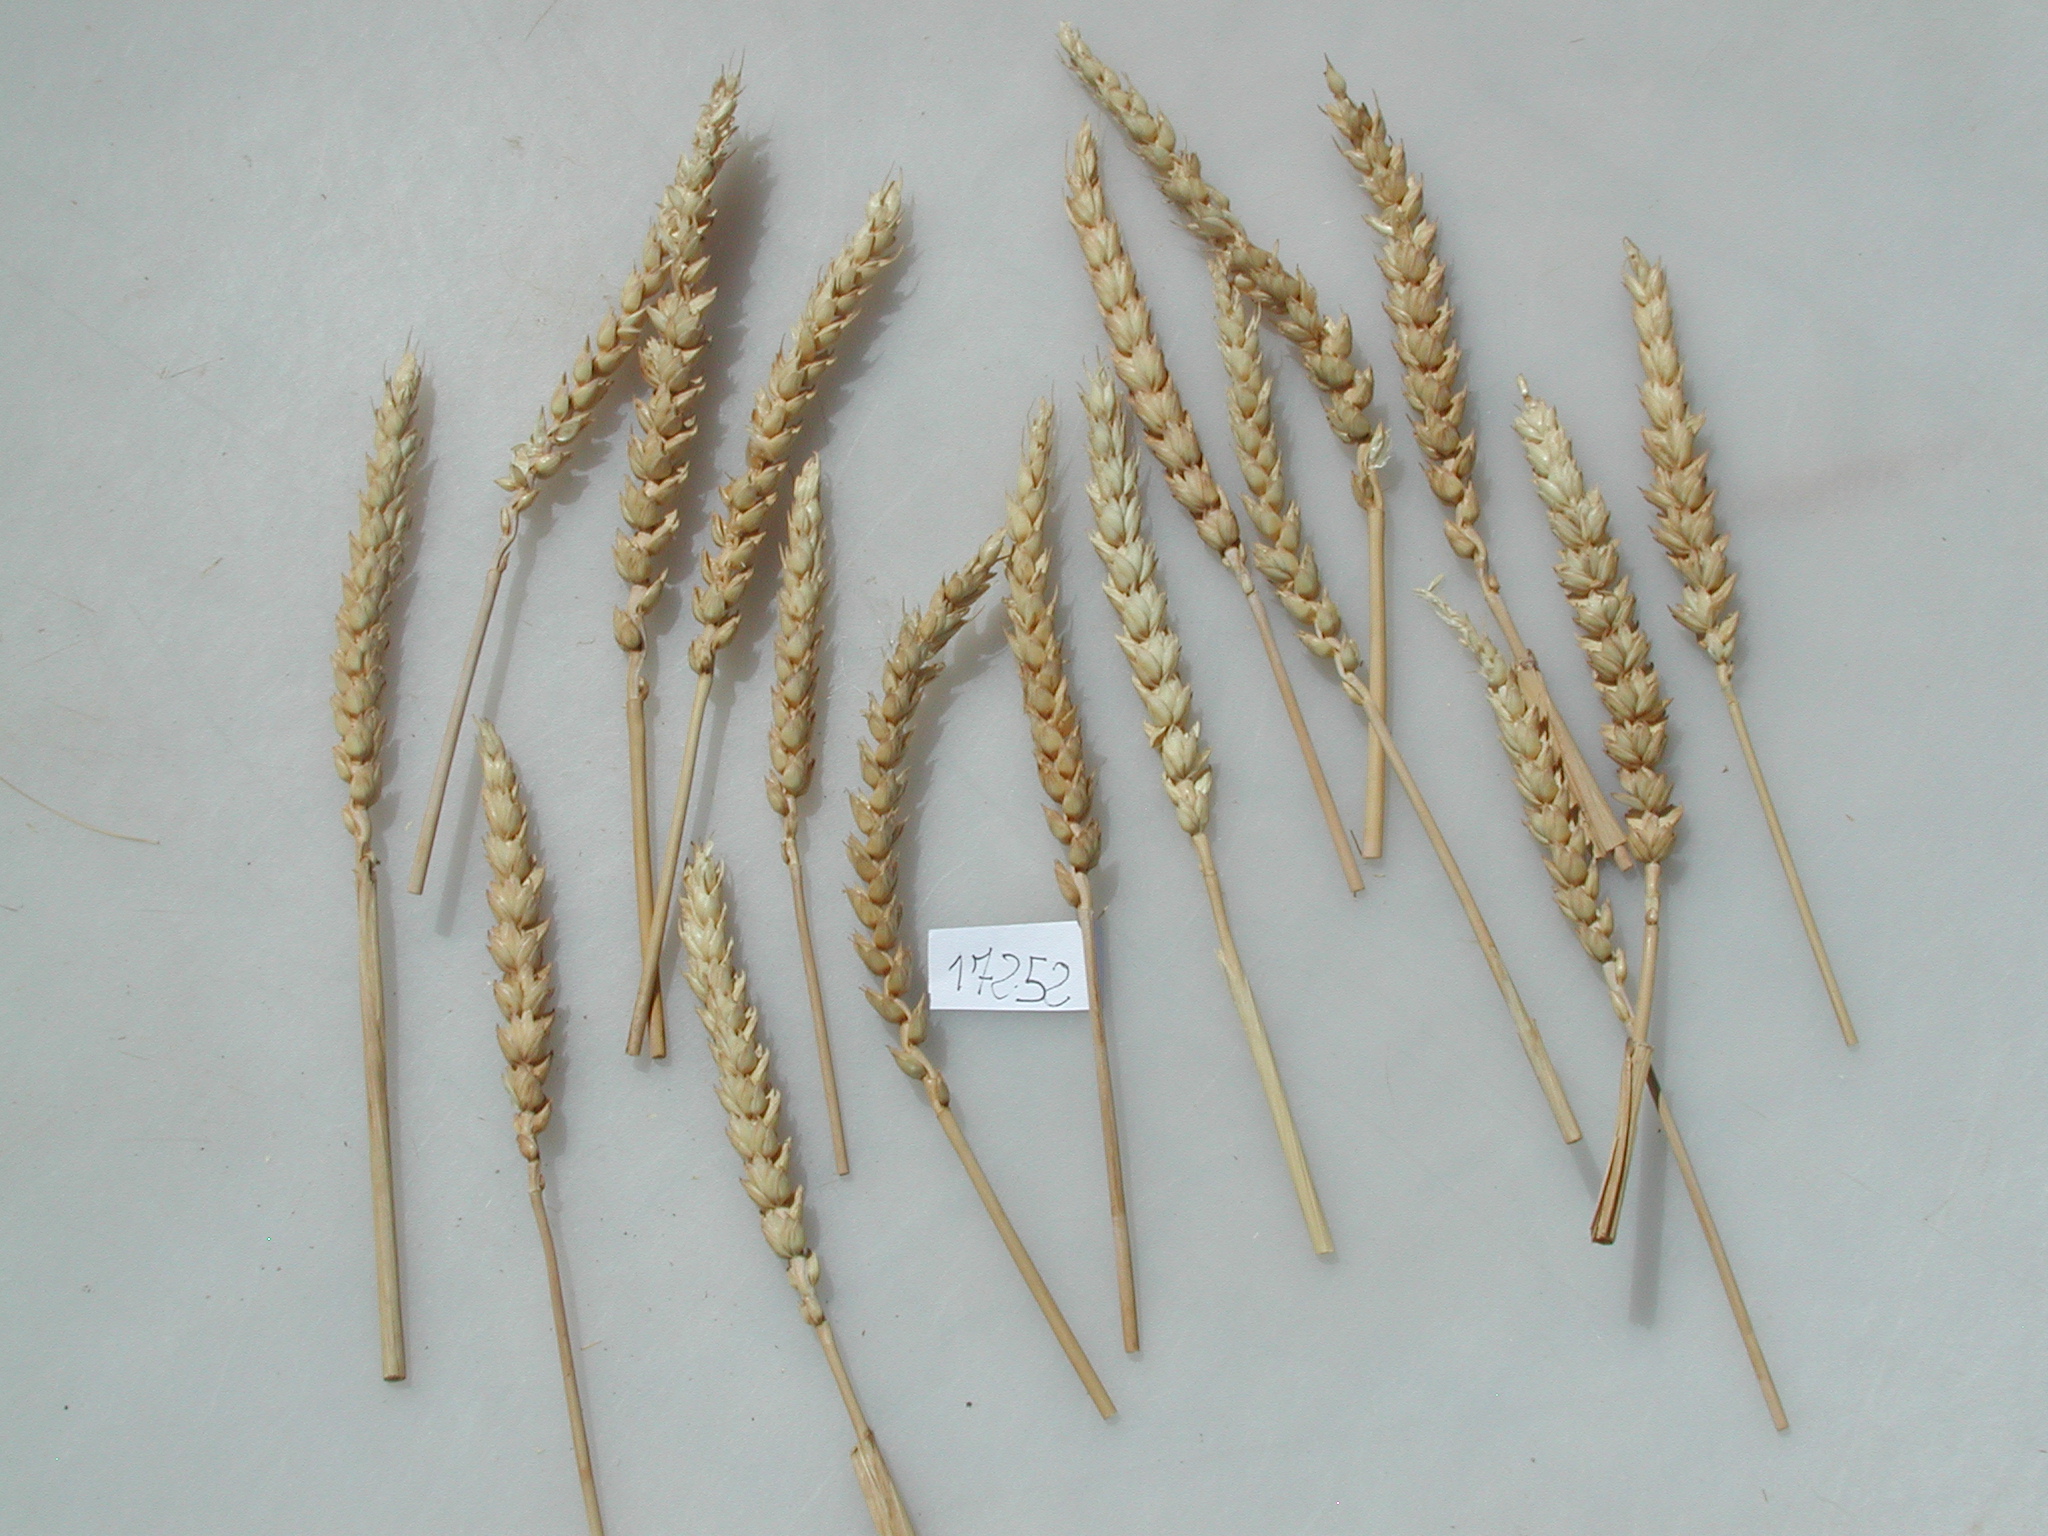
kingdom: Plantae
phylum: Tracheophyta
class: Liliopsida
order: Poales
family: Poaceae
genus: Triticum
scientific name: Triticum
